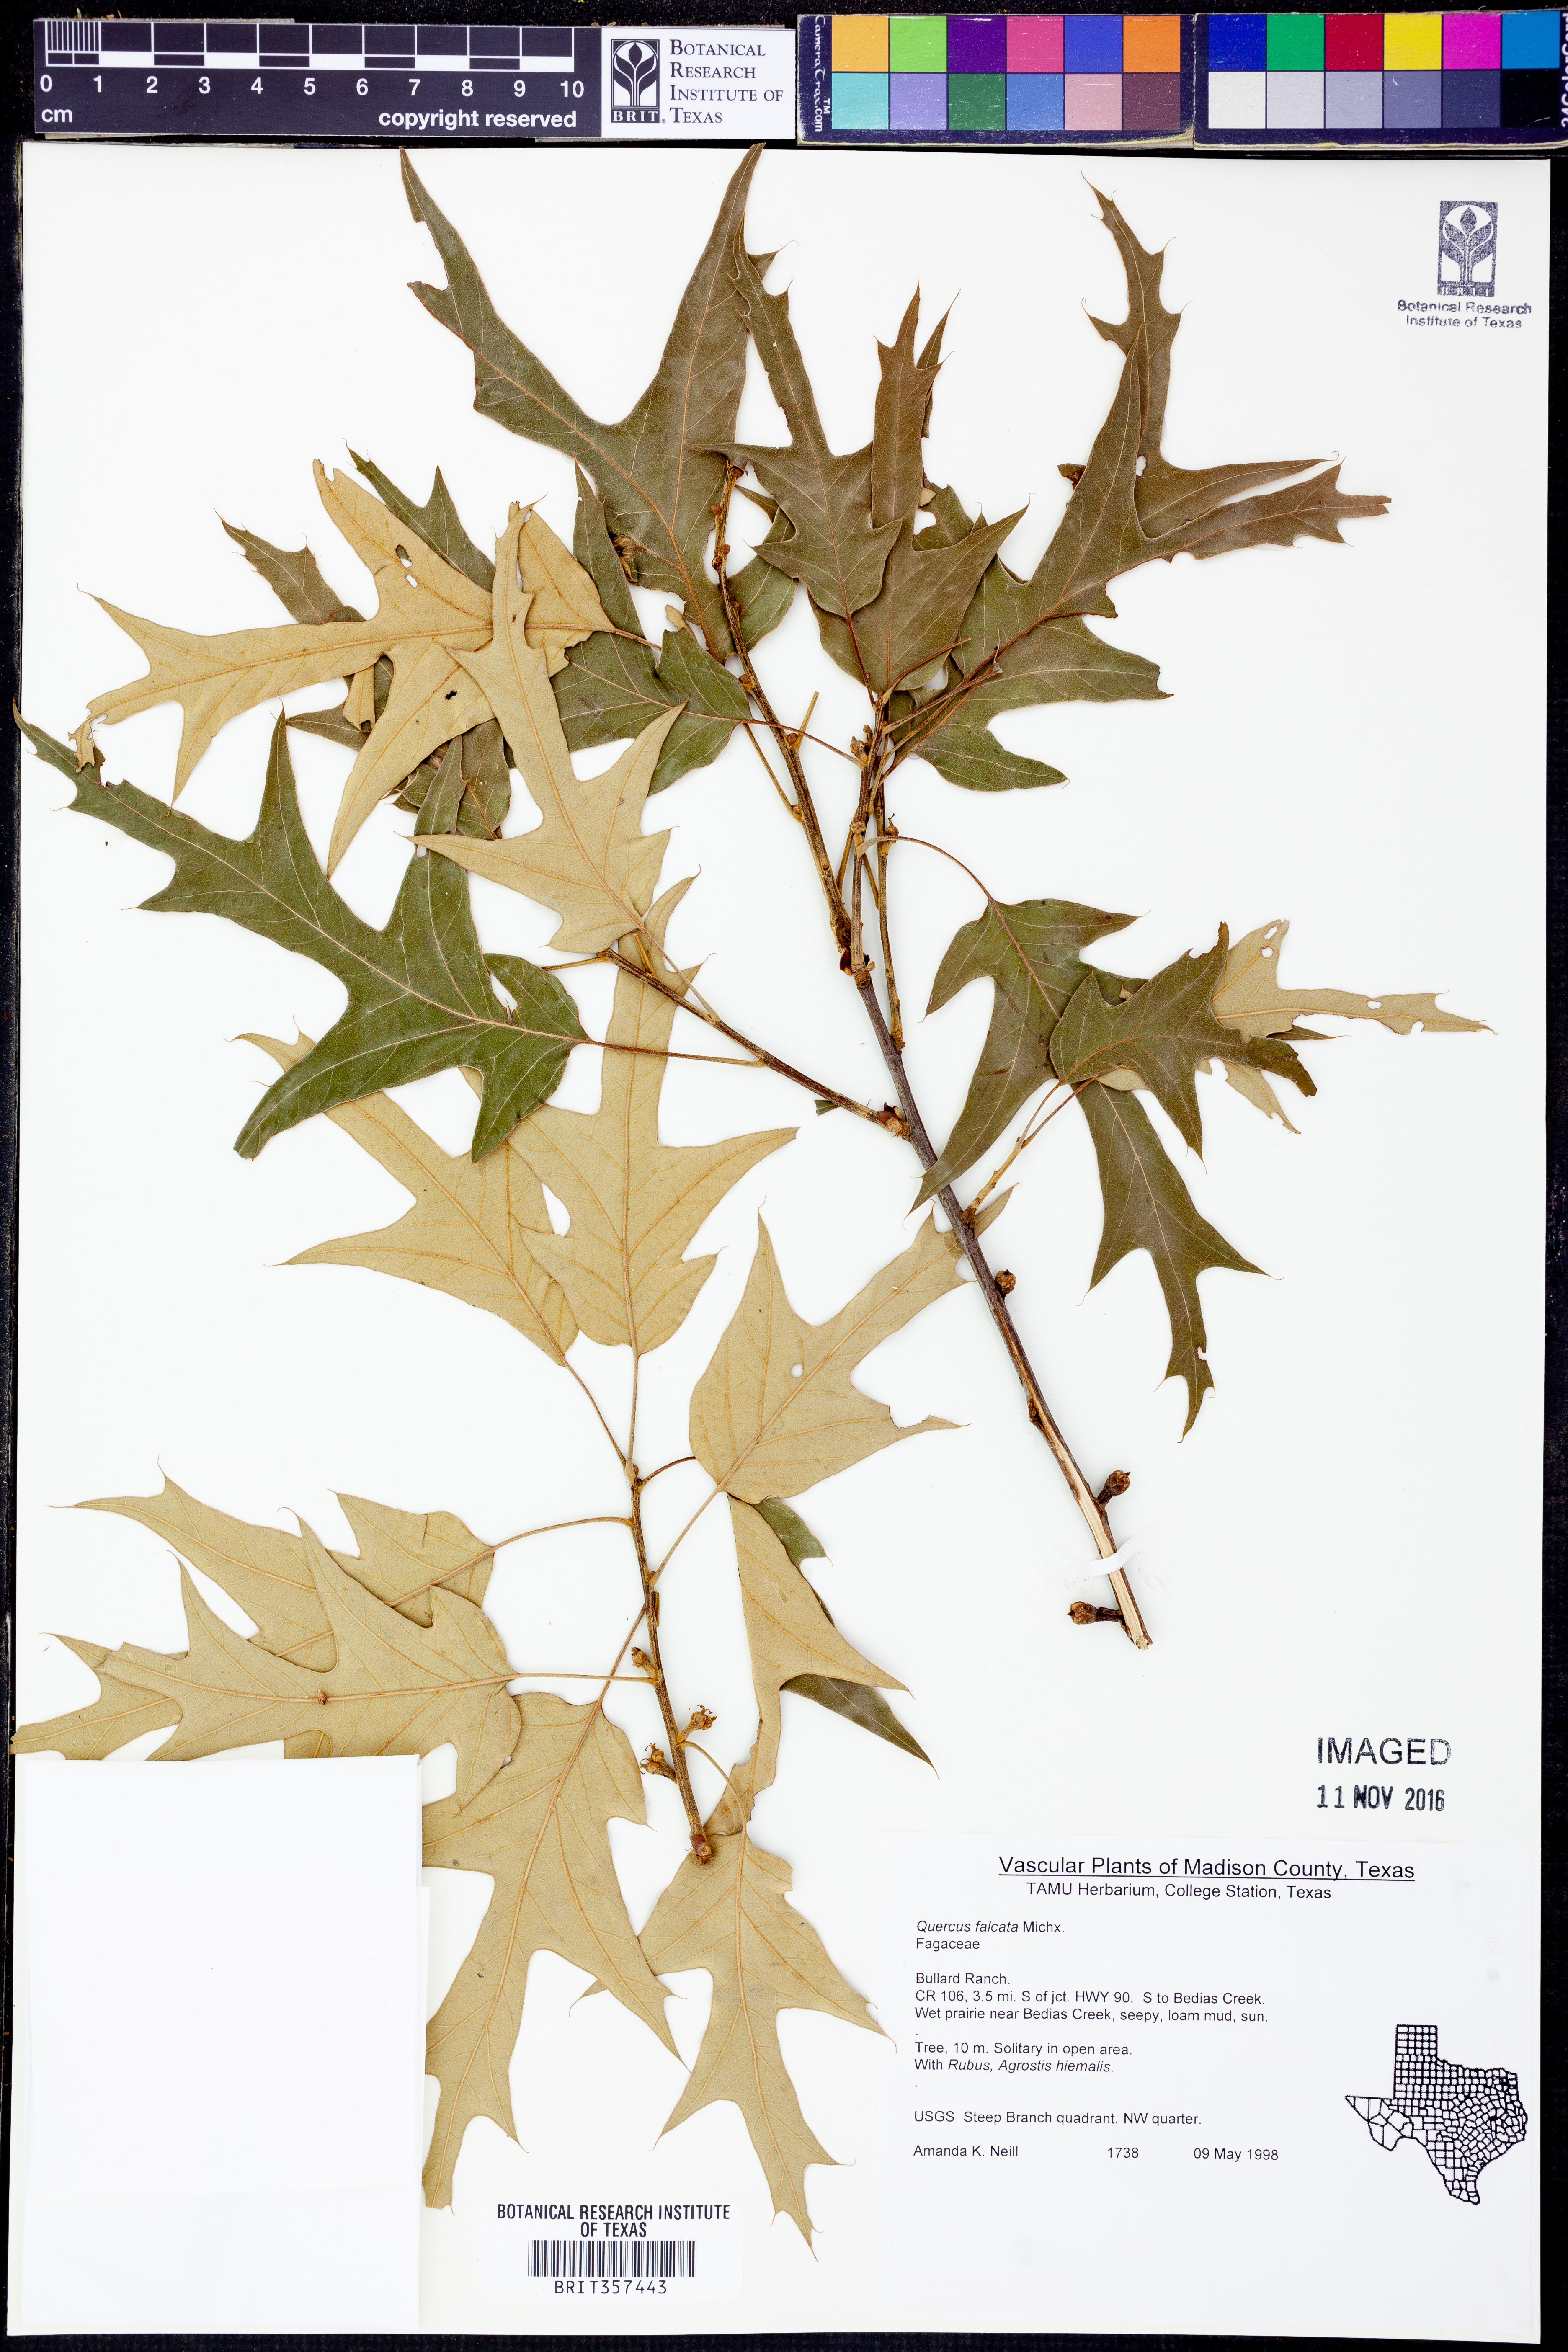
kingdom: Plantae
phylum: Tracheophyta
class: Magnoliopsida
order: Fagales
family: Fagaceae
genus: Quercus
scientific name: Quercus falcata
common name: Southern red oak
